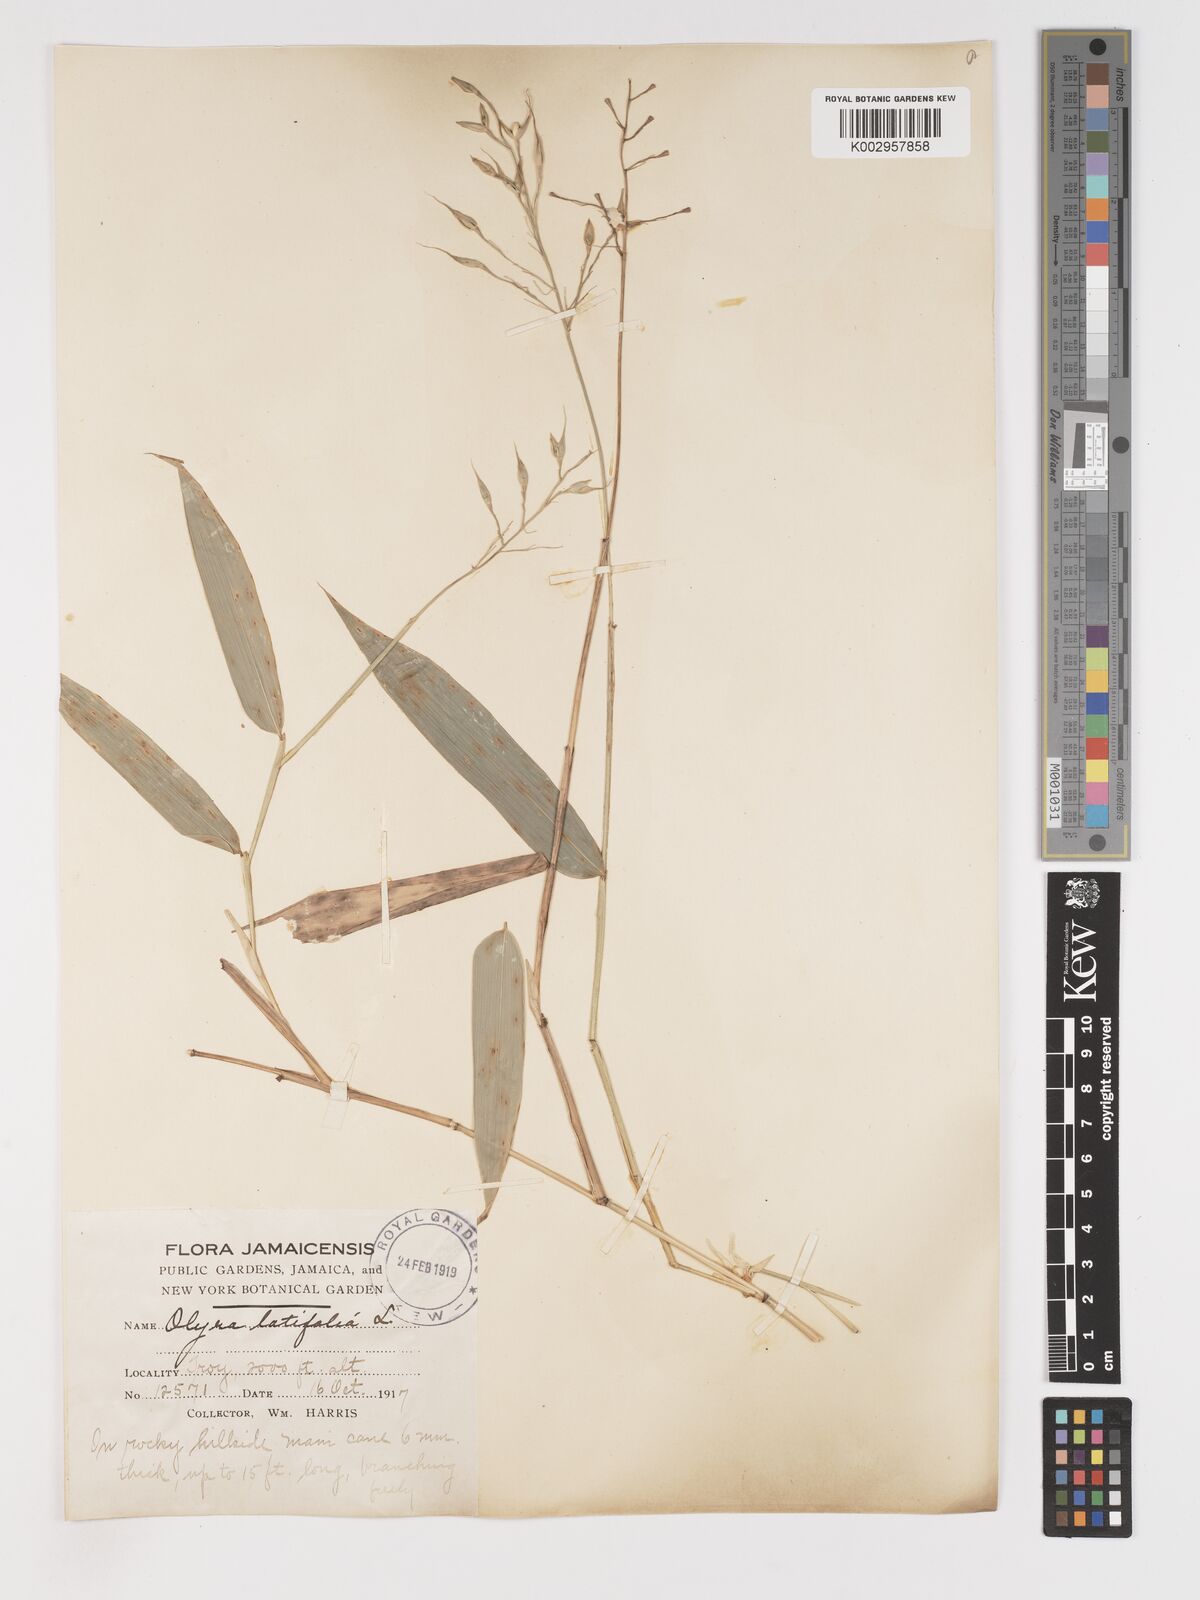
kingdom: Plantae
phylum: Tracheophyta
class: Liliopsida
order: Poales
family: Poaceae
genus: Olyra
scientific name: Olyra latifolia
